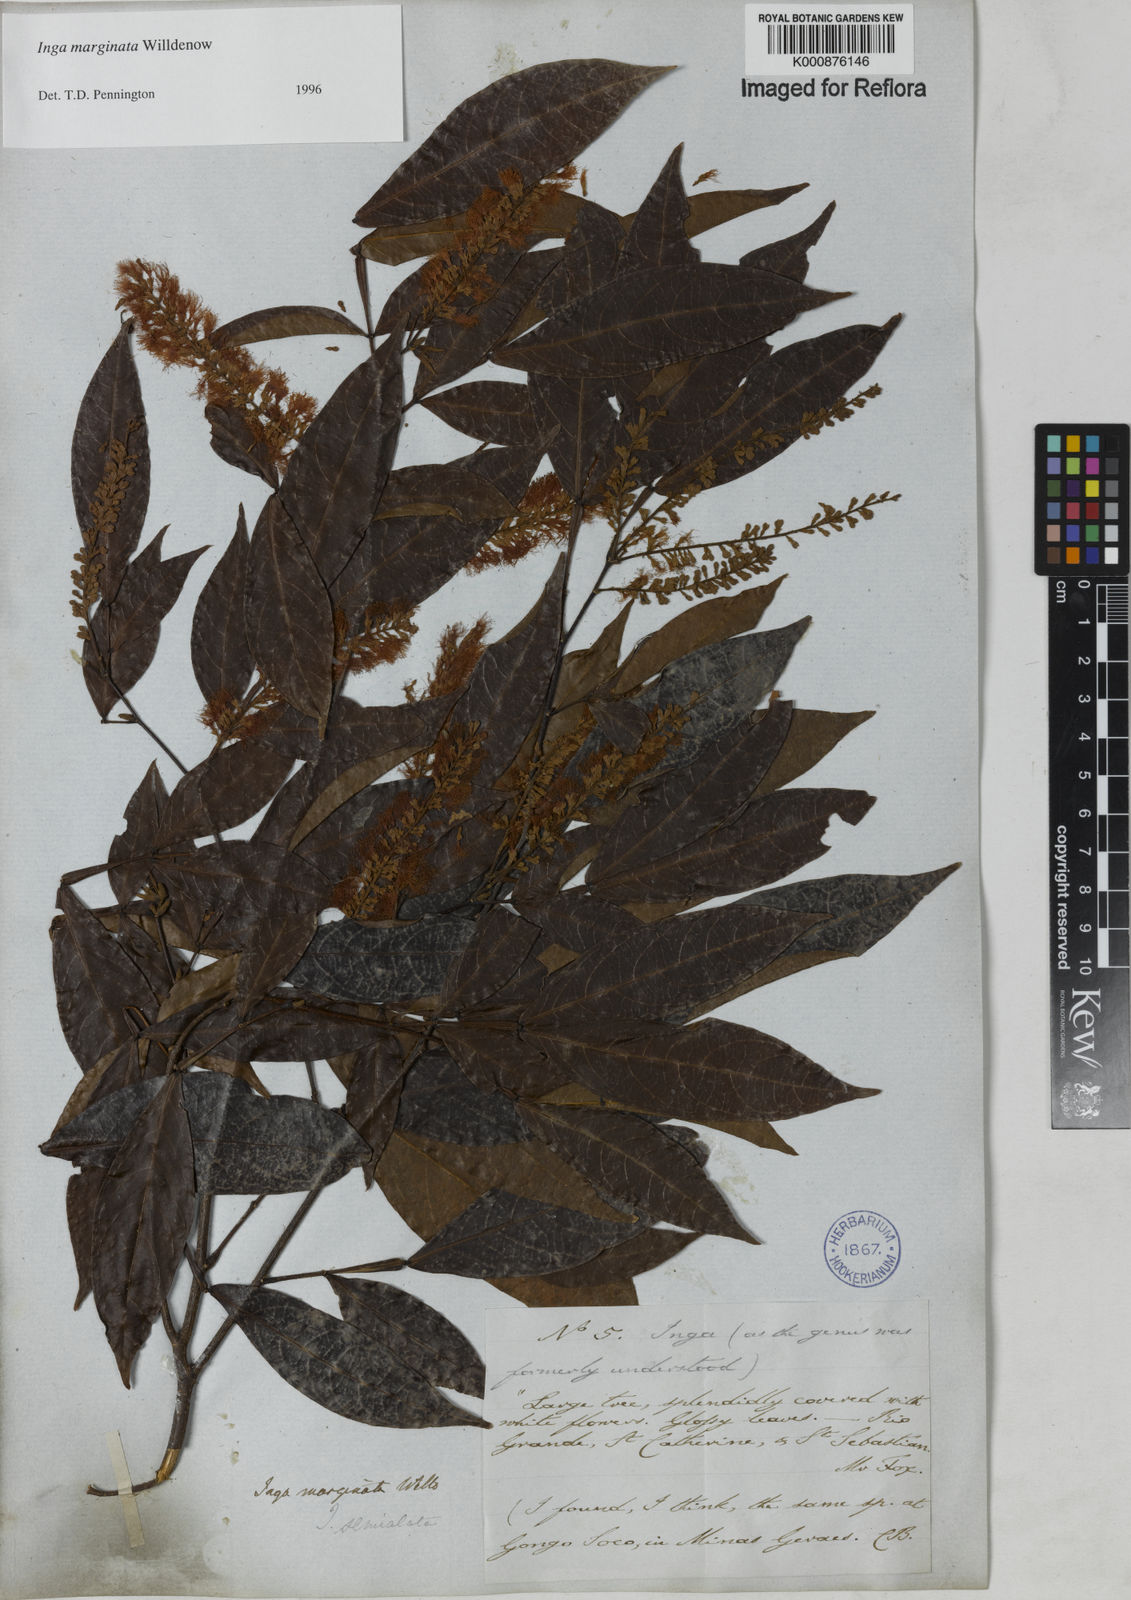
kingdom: Plantae
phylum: Tracheophyta
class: Magnoliopsida
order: Fabales
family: Fabaceae
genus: Inga
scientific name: Inga marginata
